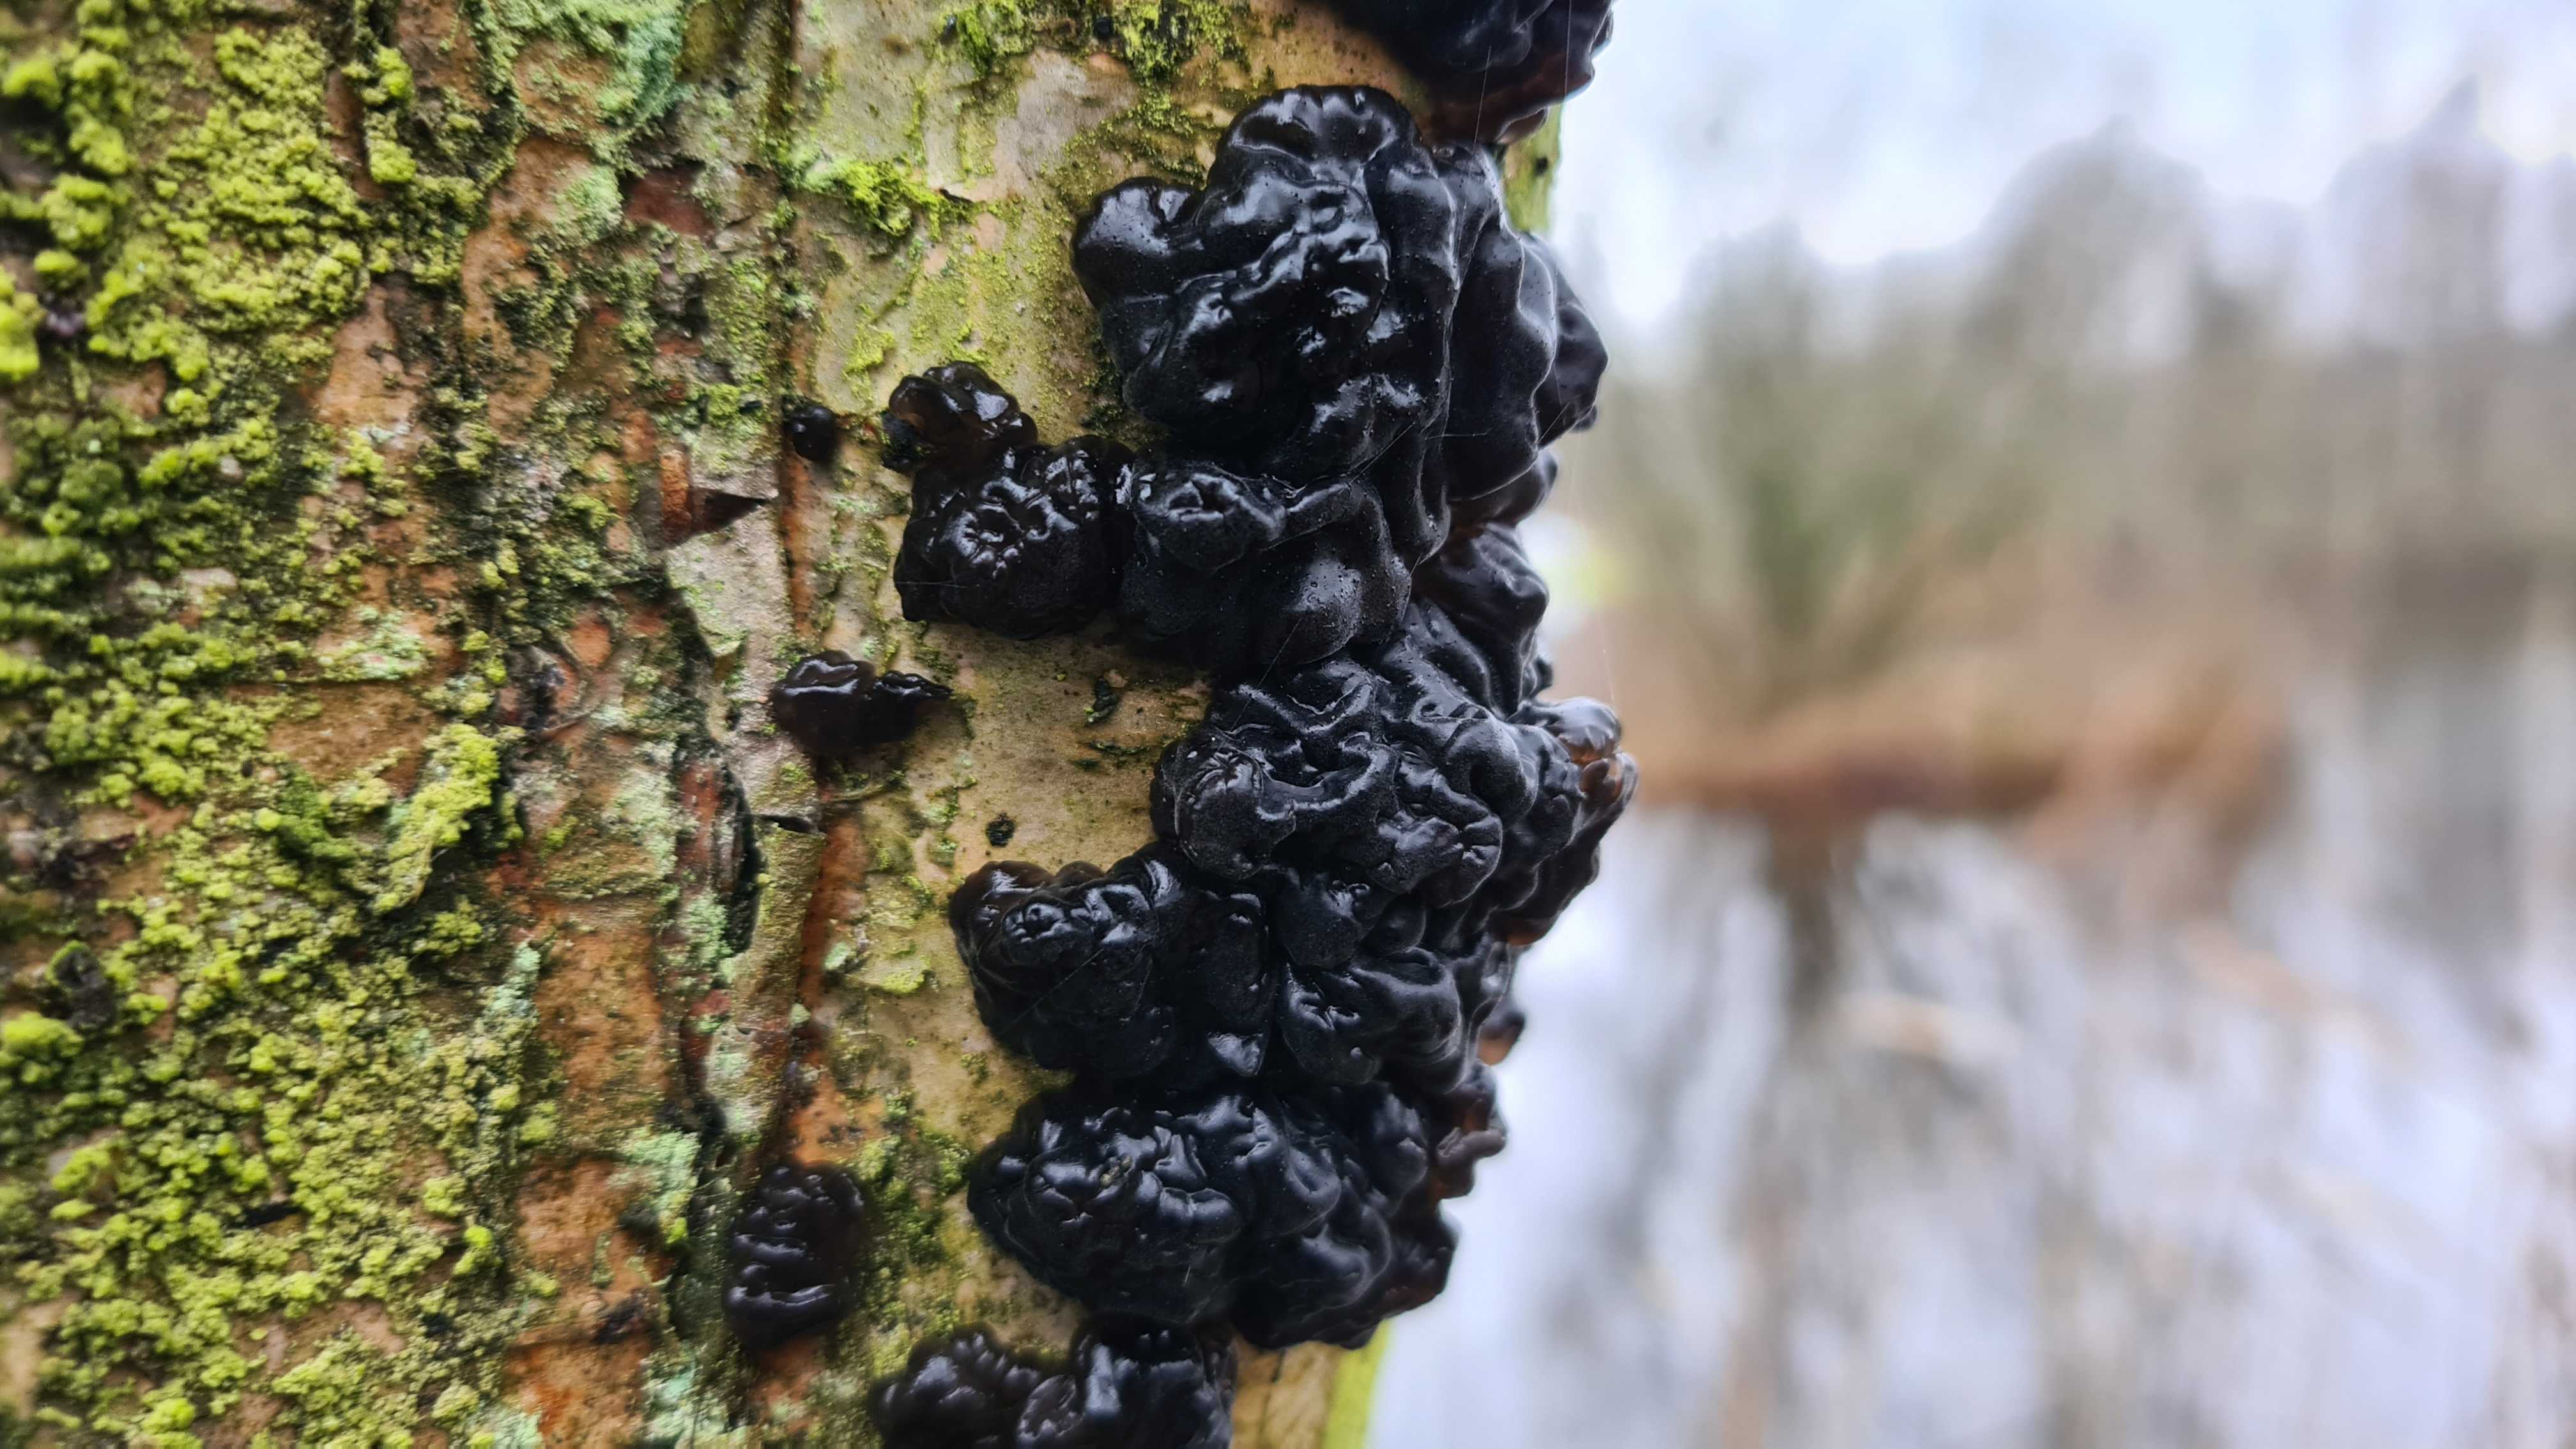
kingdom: Fungi
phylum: Basidiomycota
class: Agaricomycetes
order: Auriculariales
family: Auriculariaceae
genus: Exidia
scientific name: Exidia nigricans
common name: almindelig bævretop
